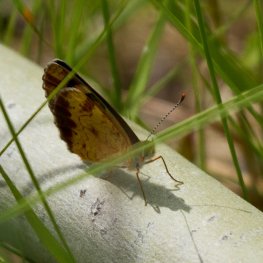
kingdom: Animalia
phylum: Arthropoda
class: Insecta
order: Lepidoptera
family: Nymphalidae
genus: Phyciodes
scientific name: Phyciodes tharos
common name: Northern Crescent
